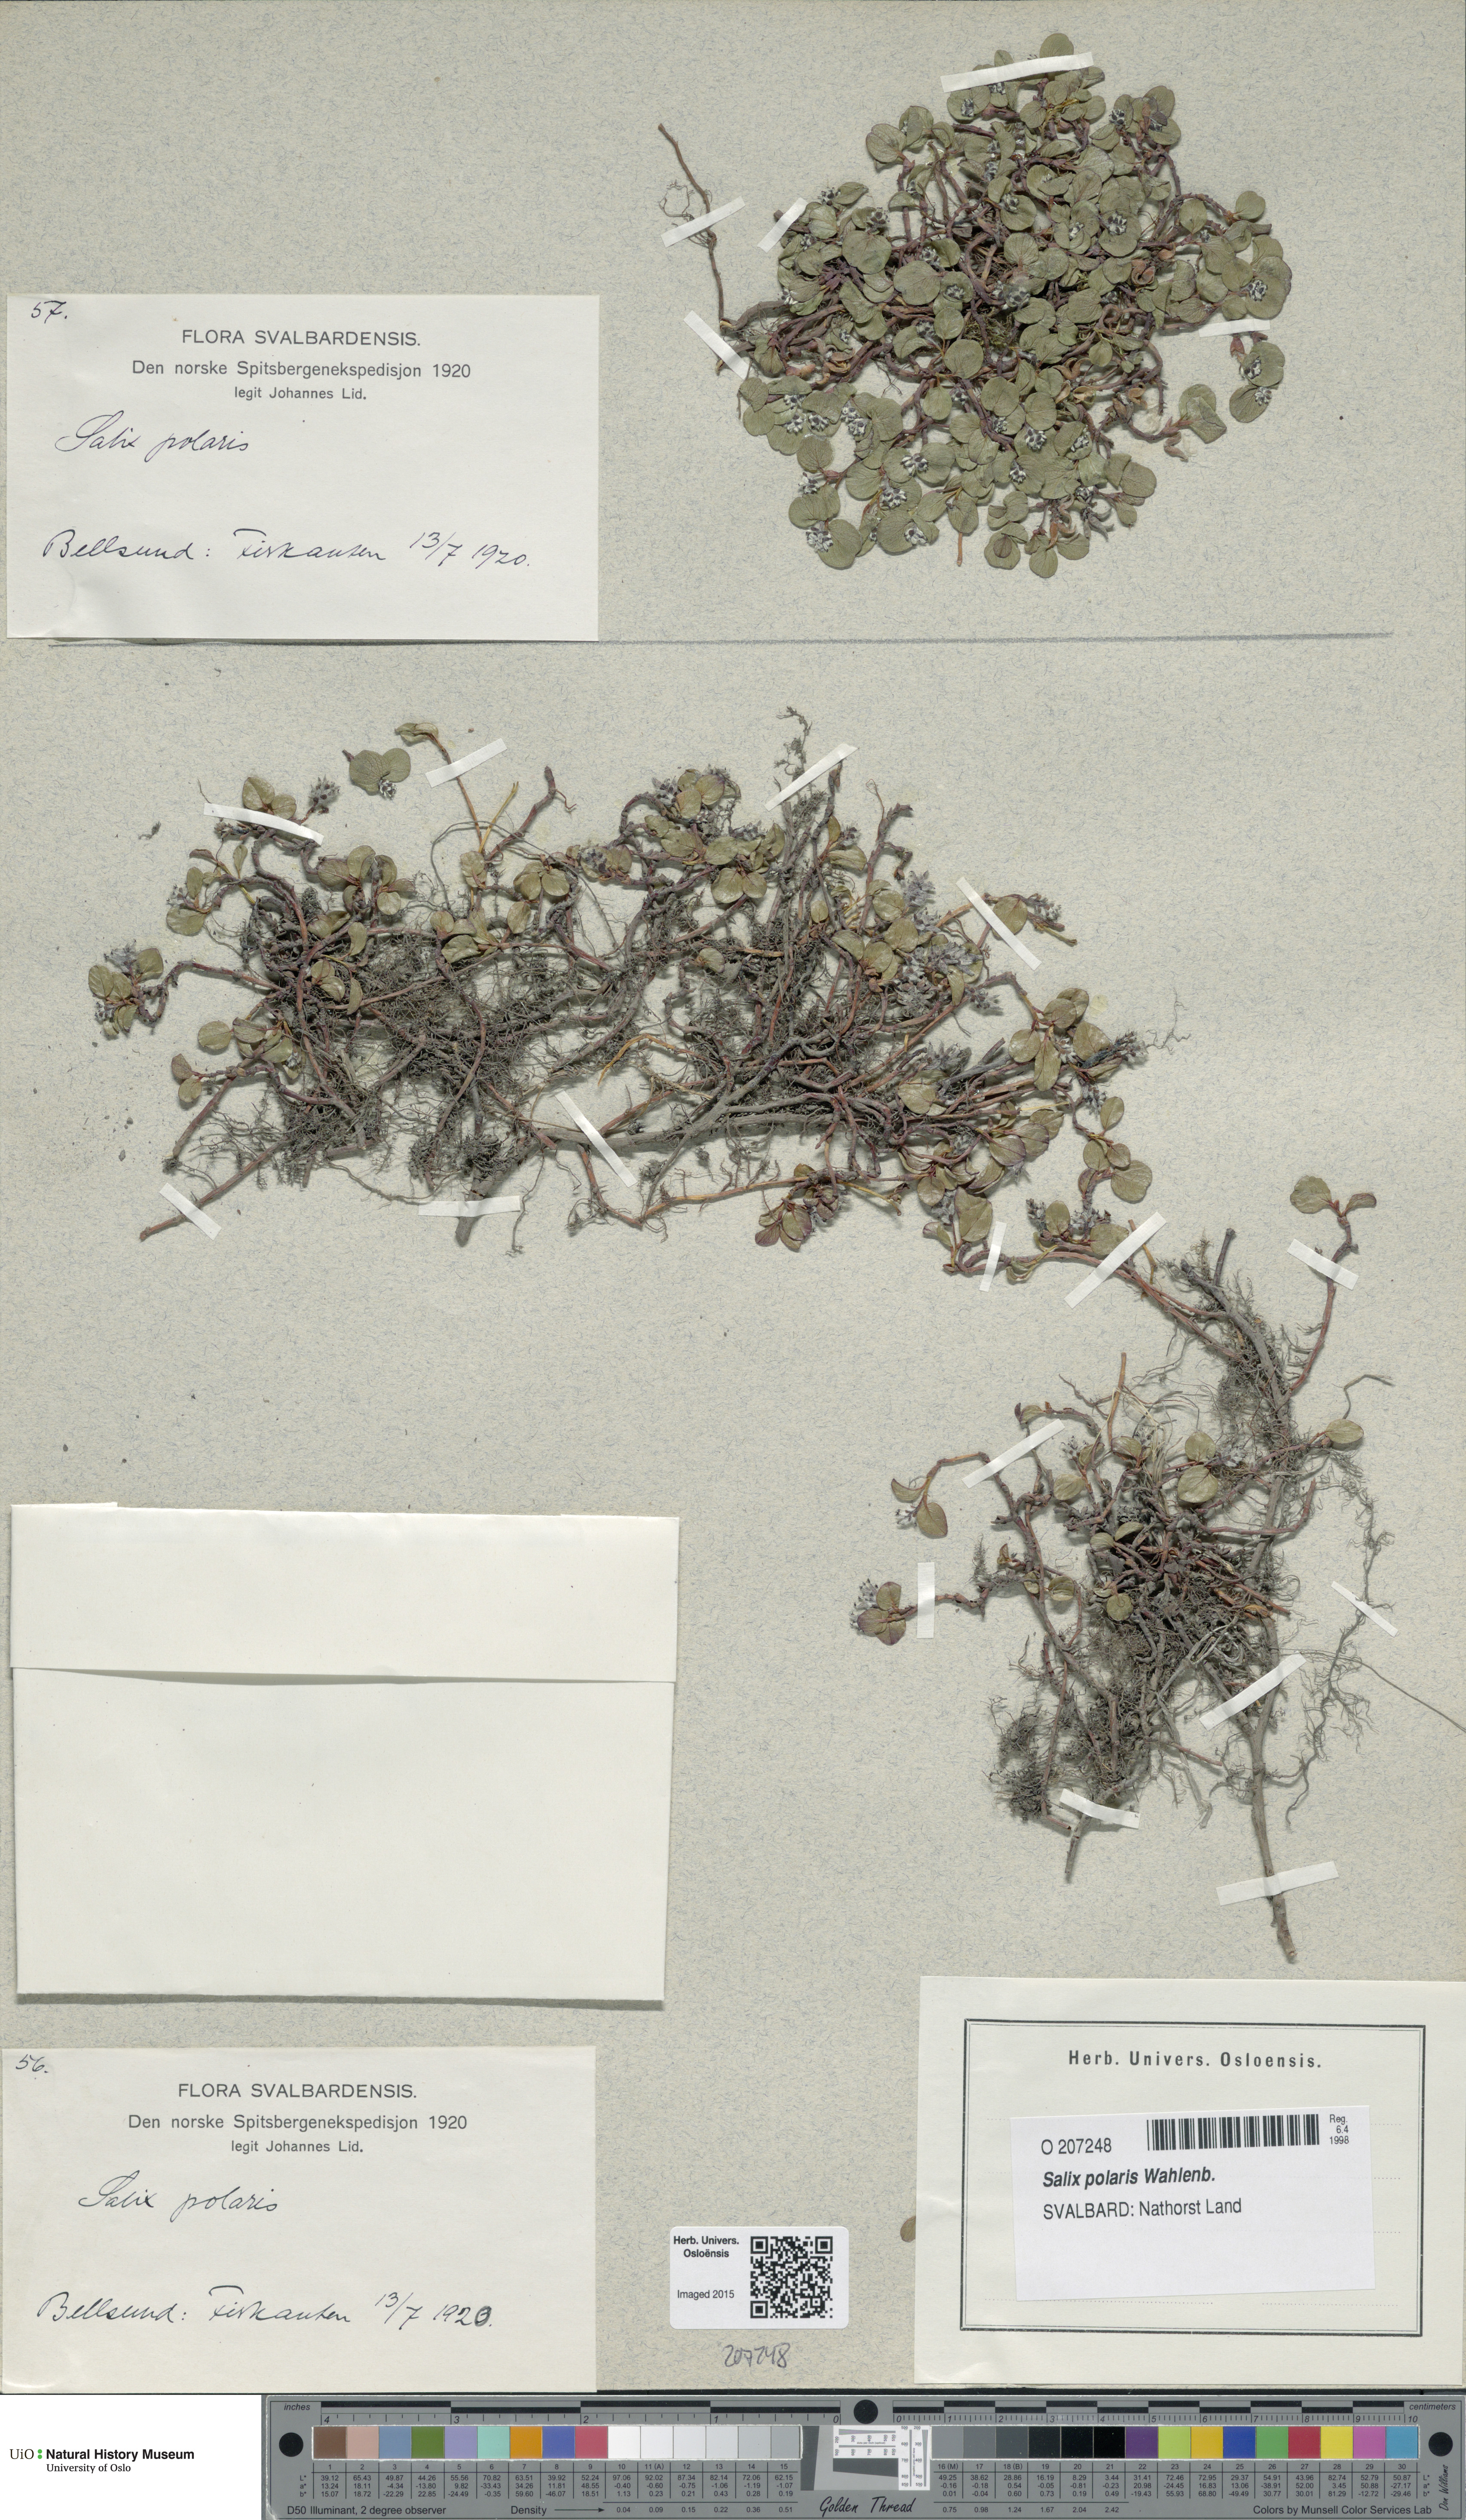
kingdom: Plantae
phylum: Tracheophyta
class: Magnoliopsida
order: Malpighiales
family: Salicaceae
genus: Salix
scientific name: Salix polaris
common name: Polar willow
